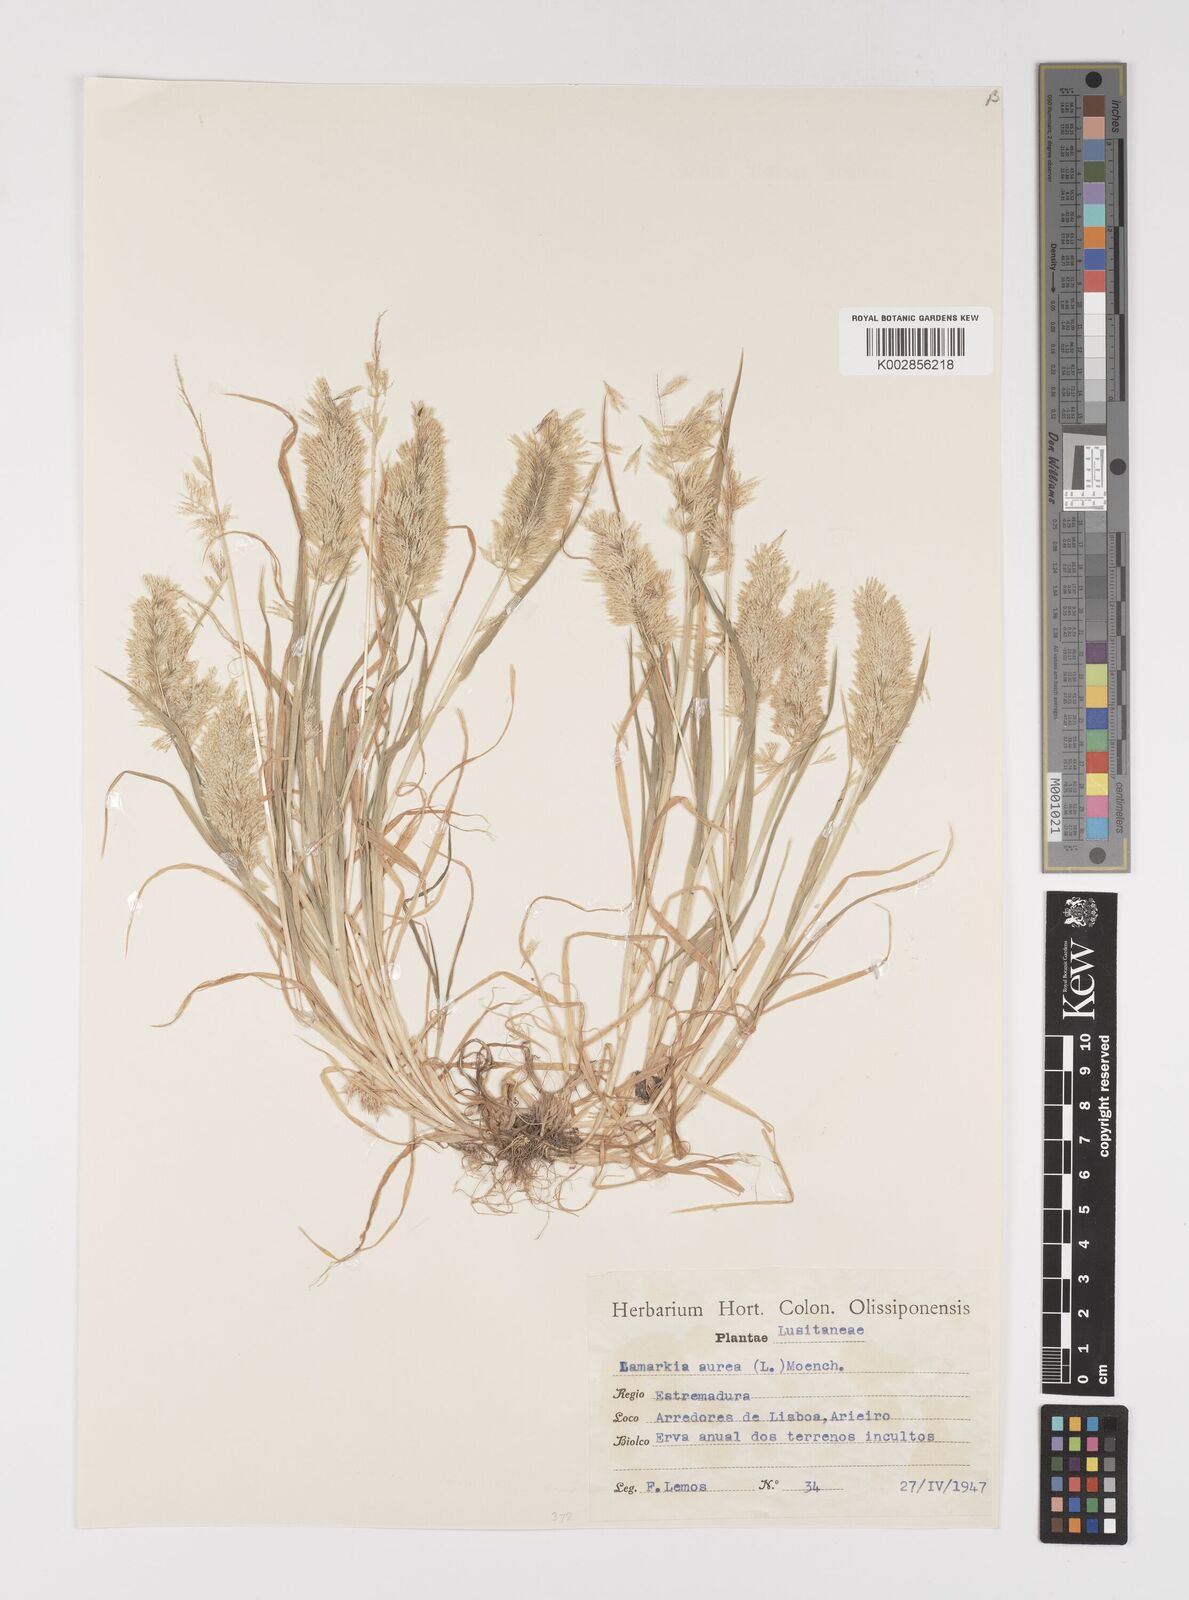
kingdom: Plantae
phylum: Tracheophyta
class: Liliopsida
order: Poales
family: Poaceae
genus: Lamarckia
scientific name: Lamarckia aurea
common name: Golden dog's-tail
